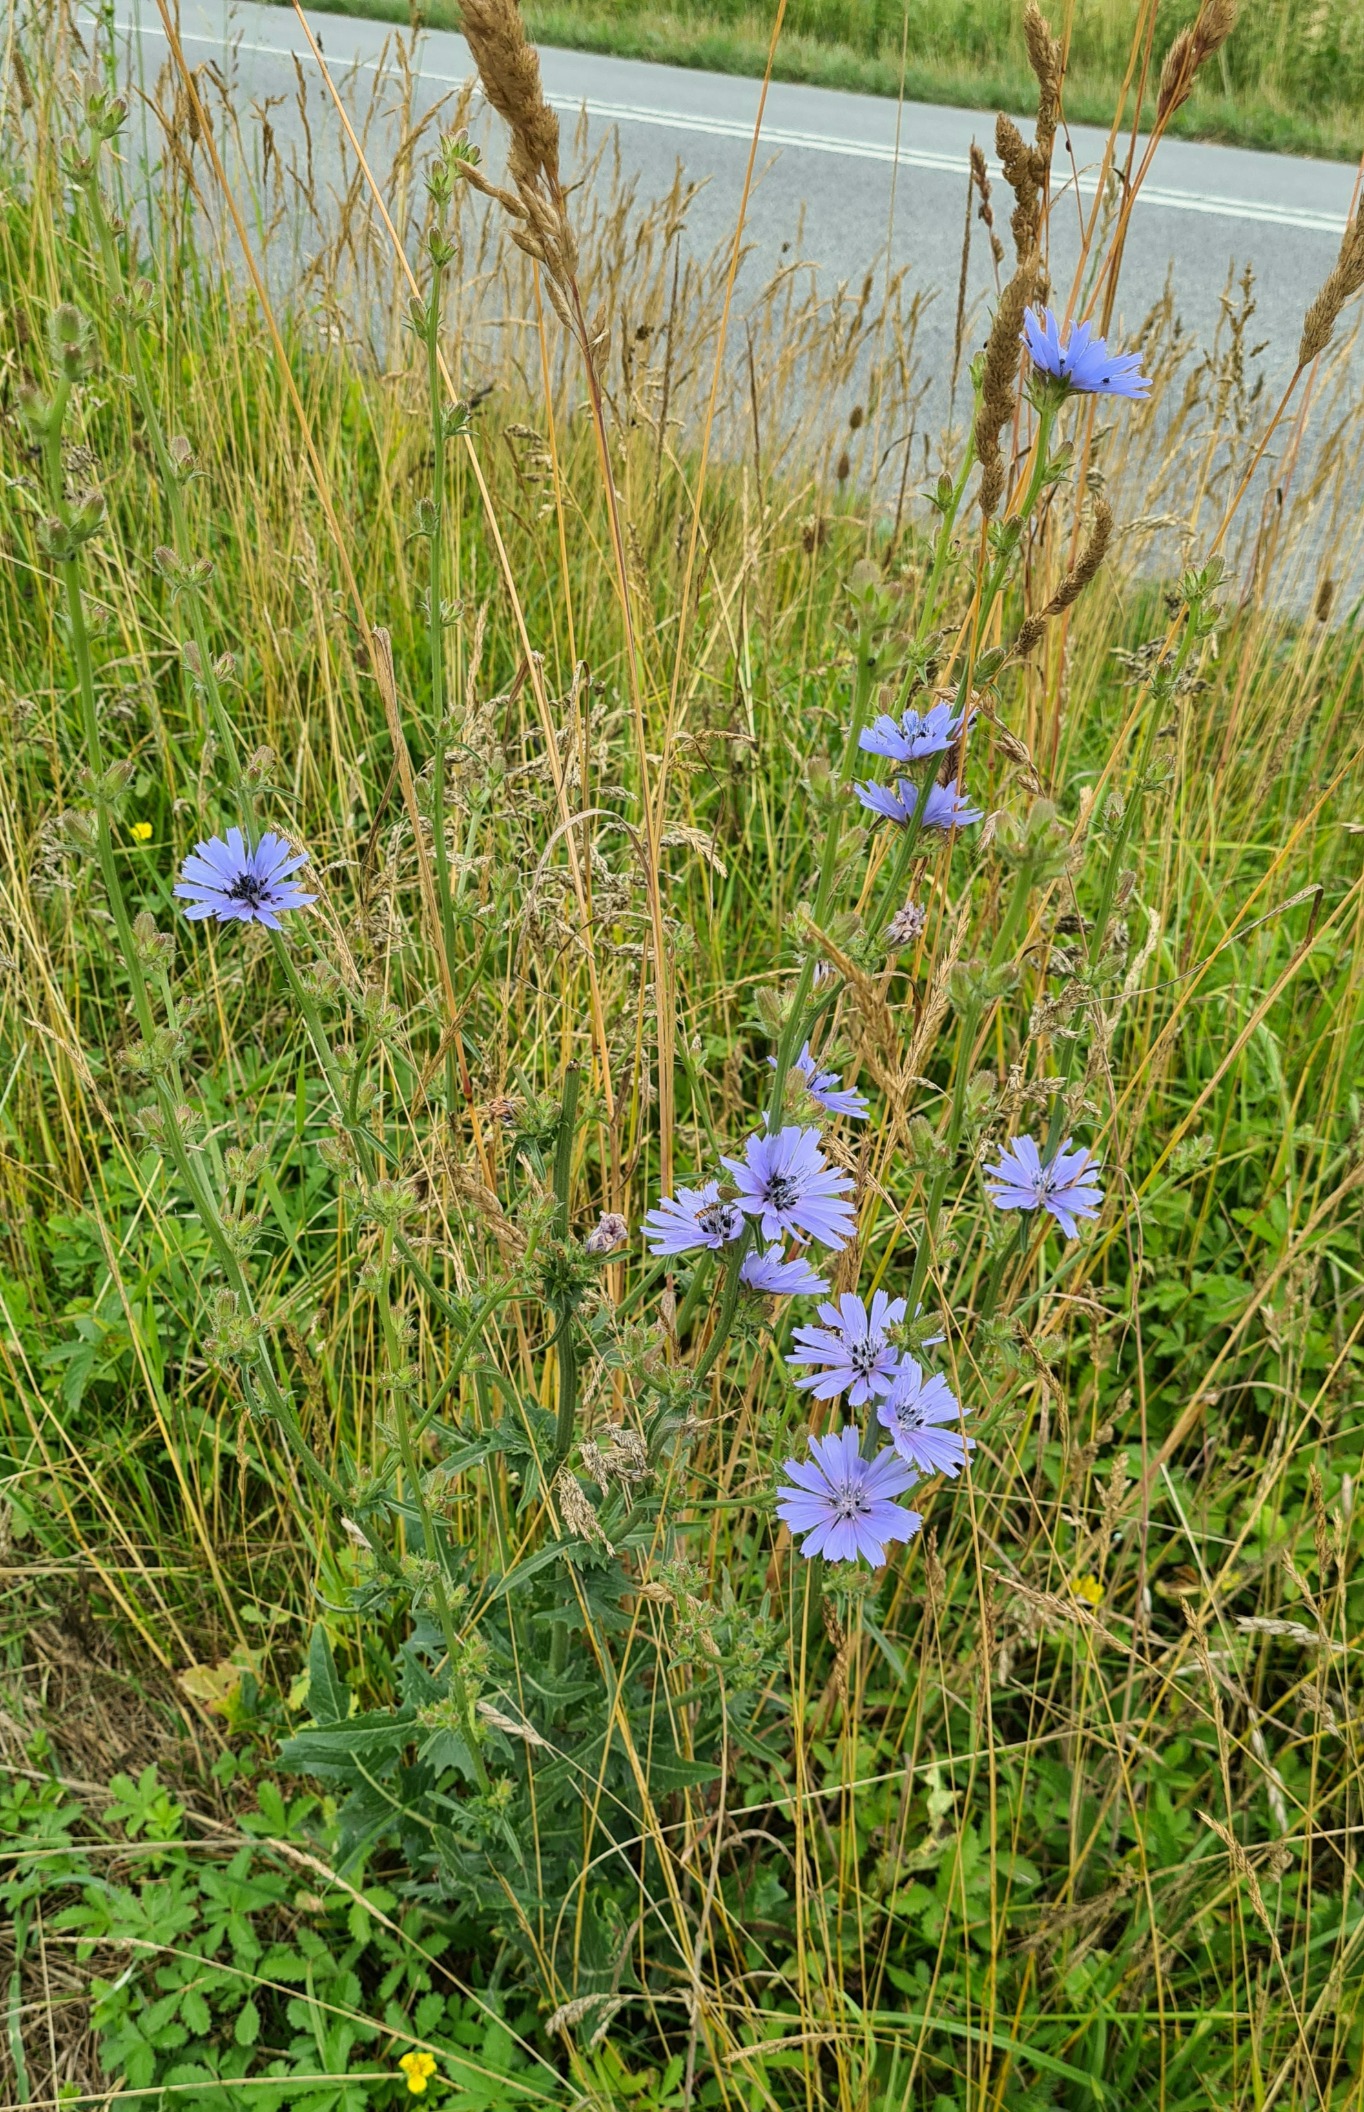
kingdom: Plantae
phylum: Tracheophyta
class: Magnoliopsida
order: Asterales
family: Asteraceae
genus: Cichorium
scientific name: Cichorium intybus
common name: Cikorie
